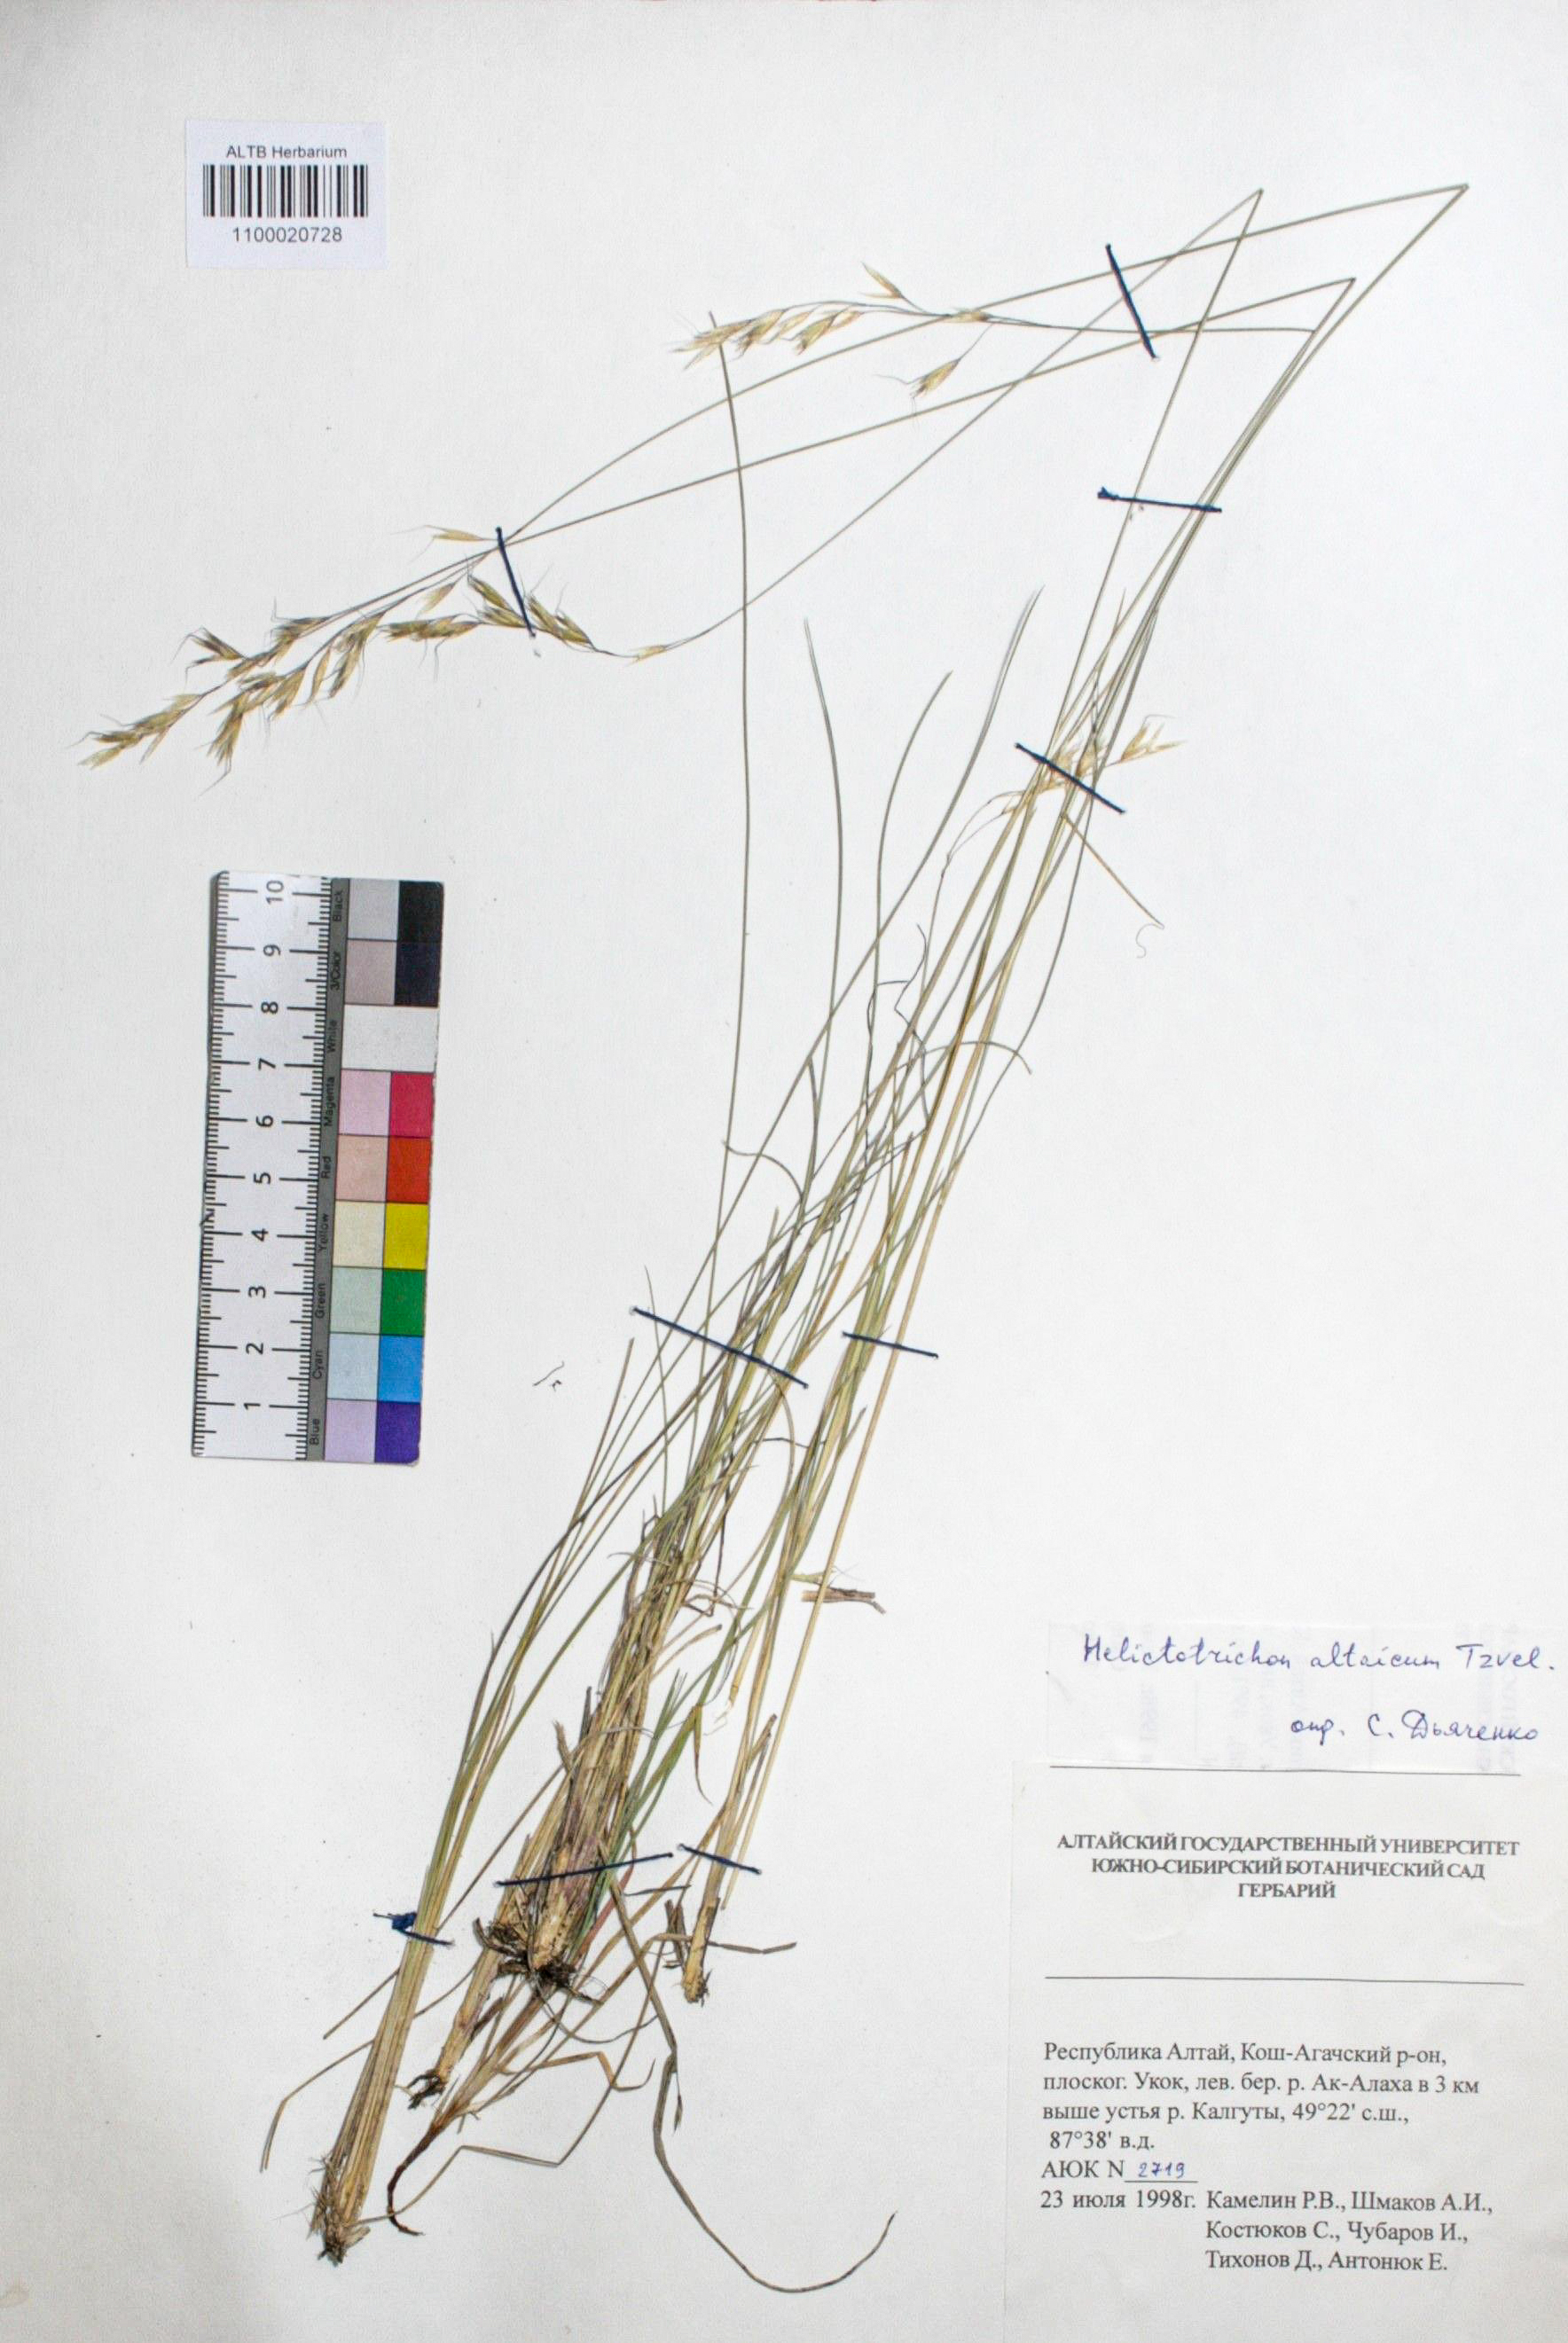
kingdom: Plantae
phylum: Tracheophyta
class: Liliopsida
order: Poales
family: Poaceae
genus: Helictotrichon
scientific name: Helictotrichon desertorum
